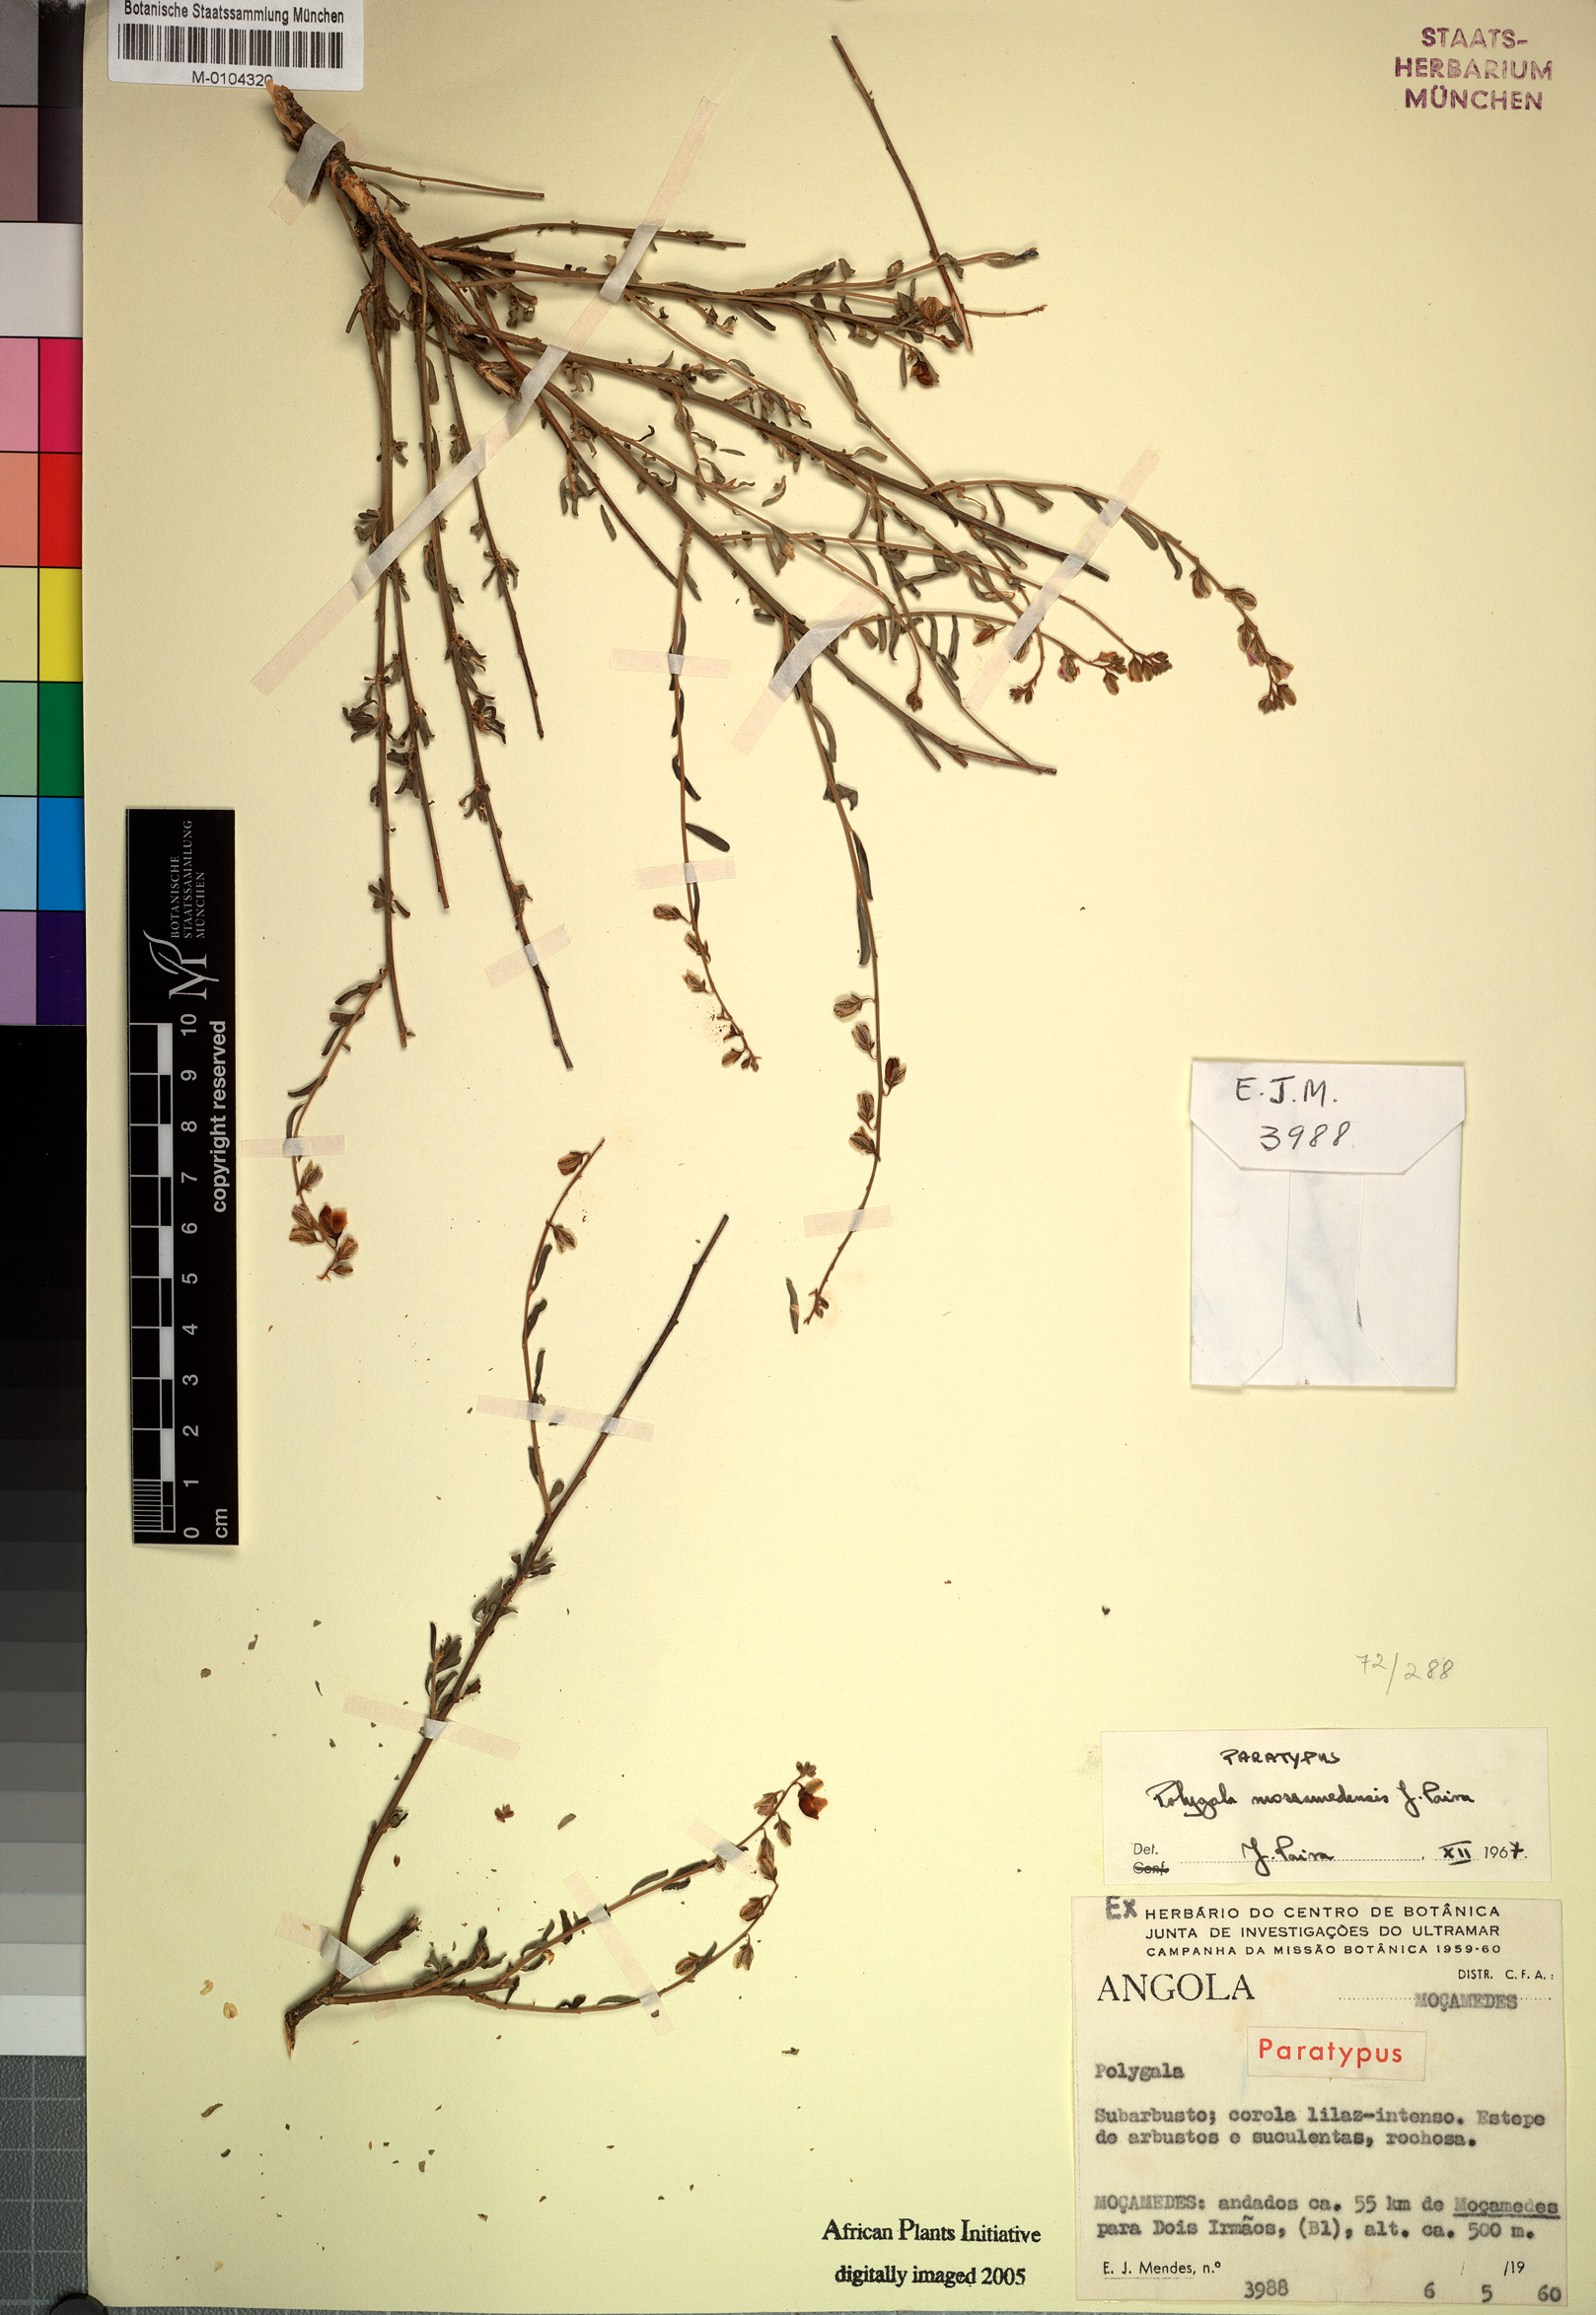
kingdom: Plantae
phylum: Tracheophyta
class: Magnoliopsida
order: Fabales
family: Polygalaceae
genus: Polygala
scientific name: Polygala mossamedensis
